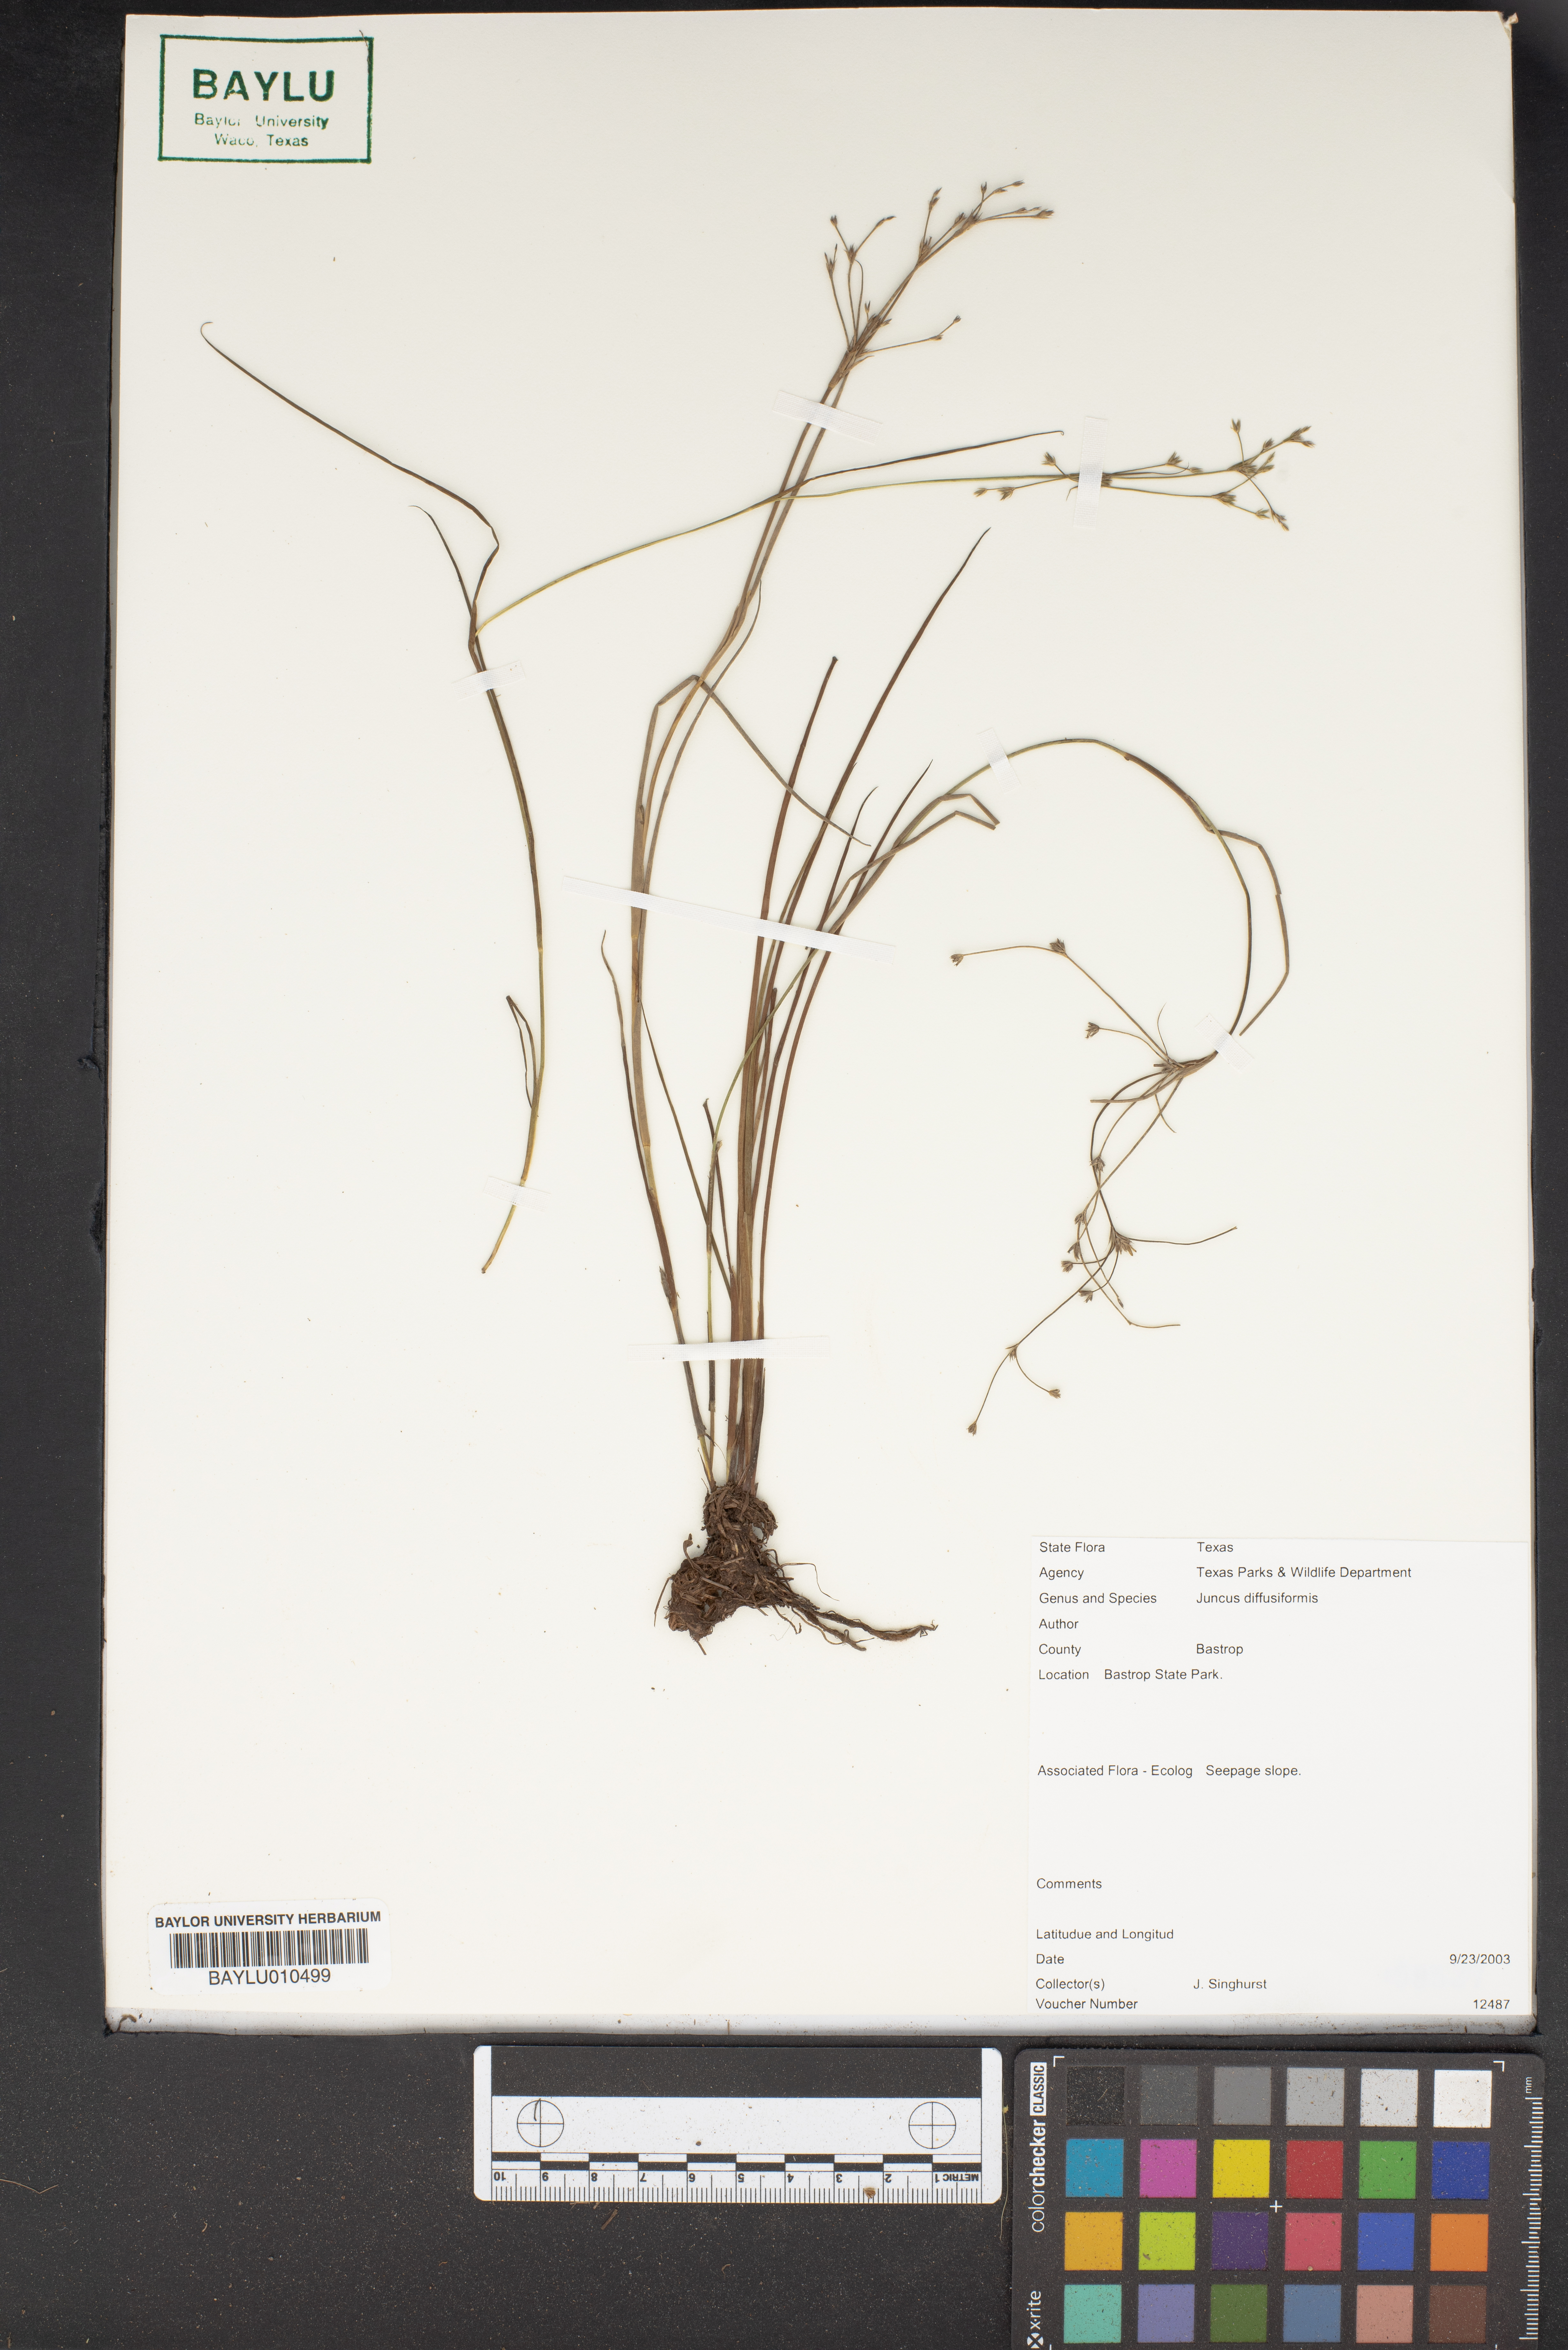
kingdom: Plantae
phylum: Tracheophyta
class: Liliopsida
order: Poales
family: Juncaceae
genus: Juncus
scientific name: Juncus diffusissimus
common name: Slimpod rush
